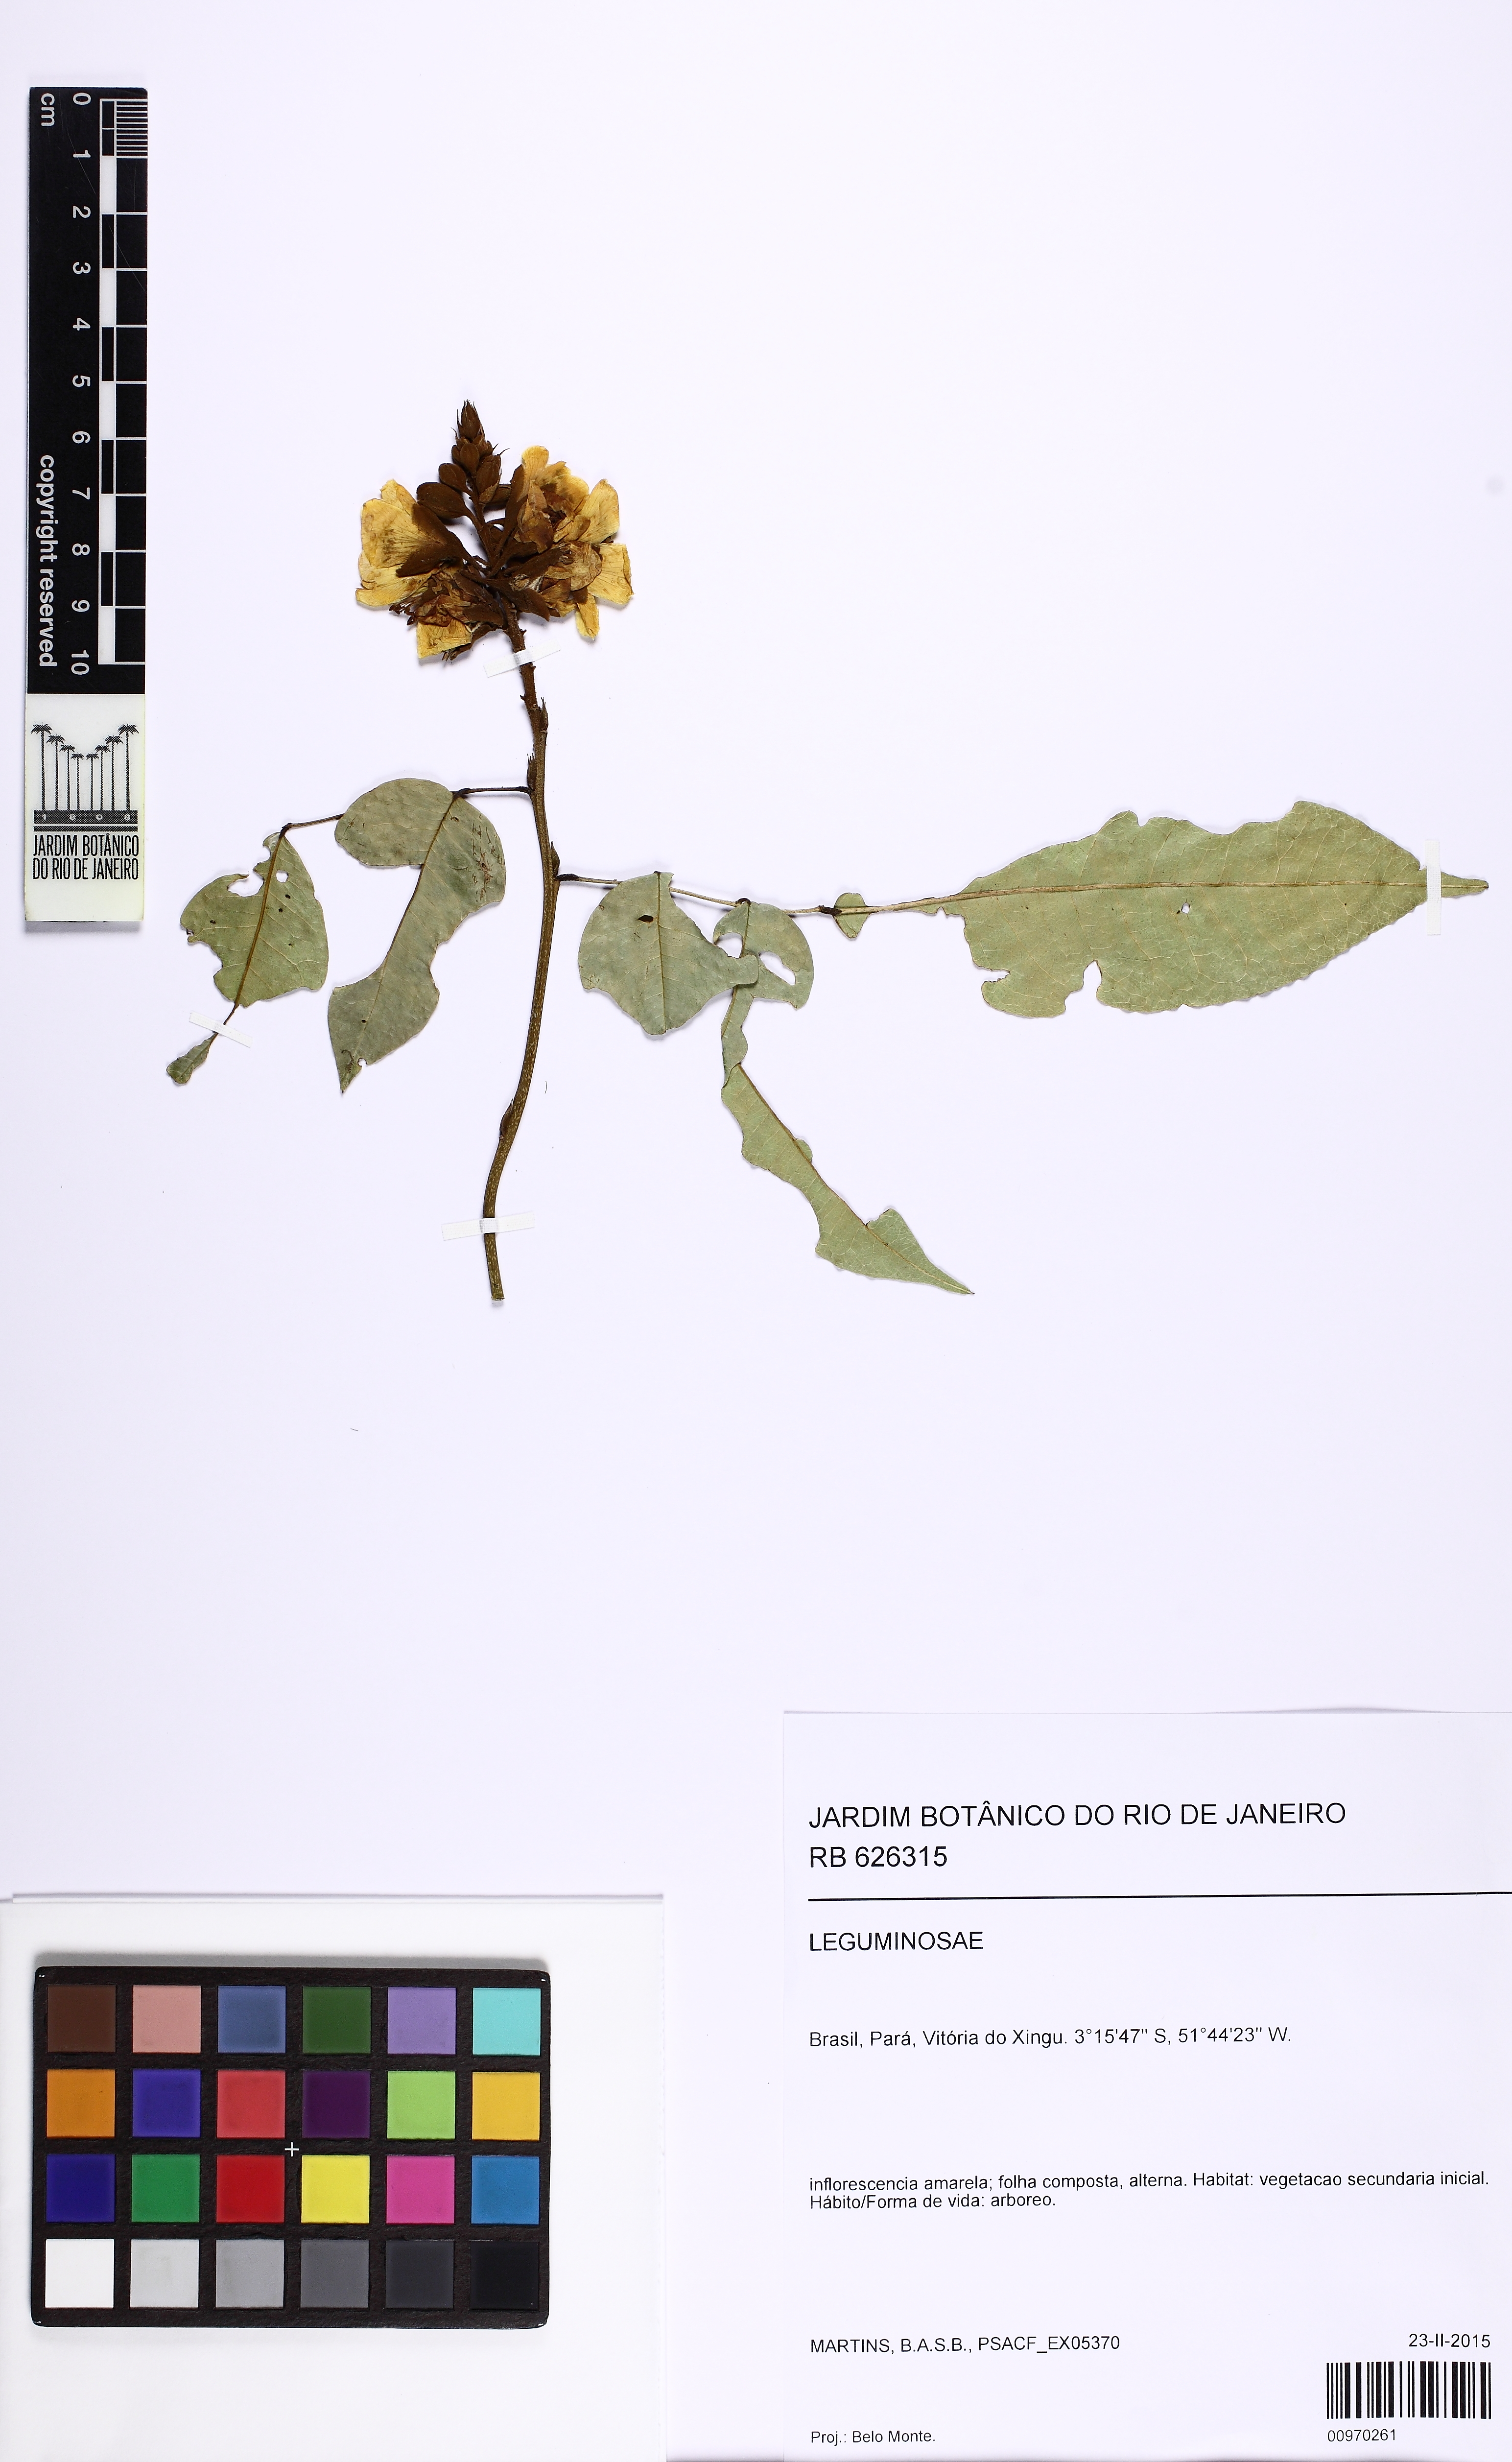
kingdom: Plantae
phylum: Tracheophyta
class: Magnoliopsida
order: Fabales
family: Fabaceae
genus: Cenostigma
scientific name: Cenostigma tocantinum
